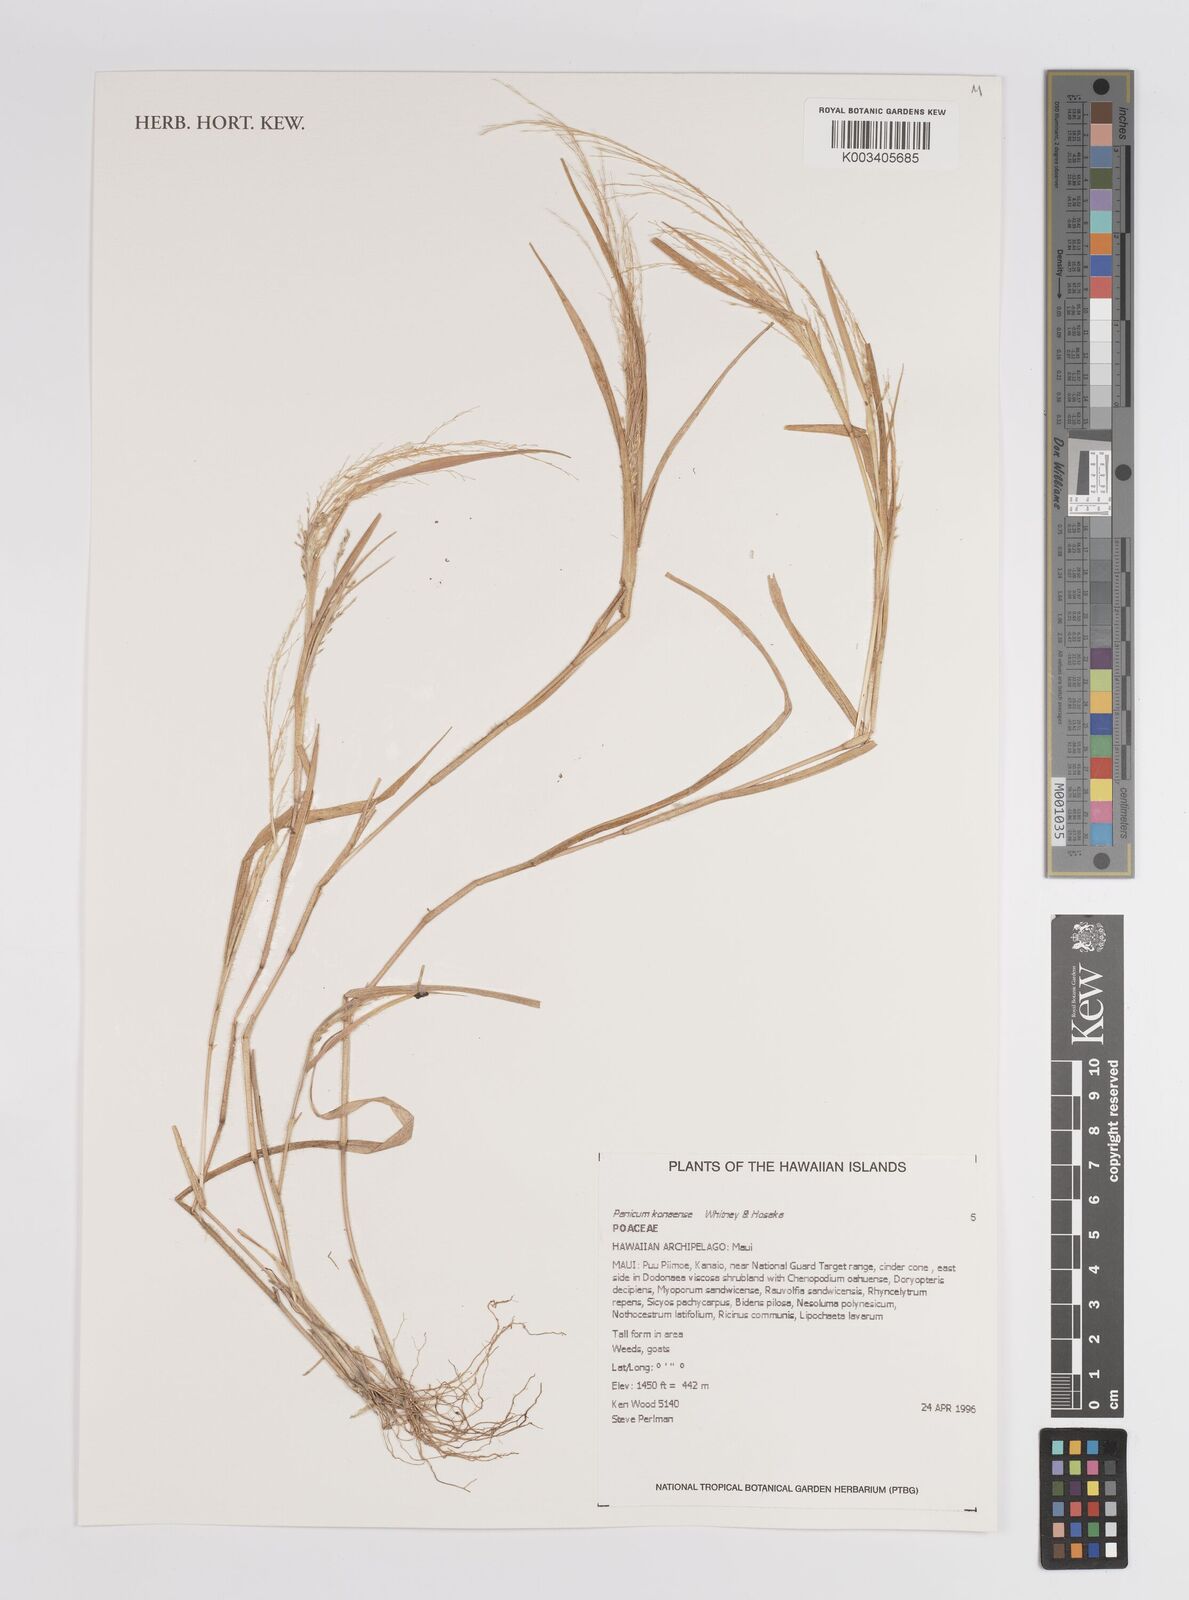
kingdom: Plantae
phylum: Tracheophyta
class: Liliopsida
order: Poales
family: Poaceae
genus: Panicum
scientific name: Panicum konaense
